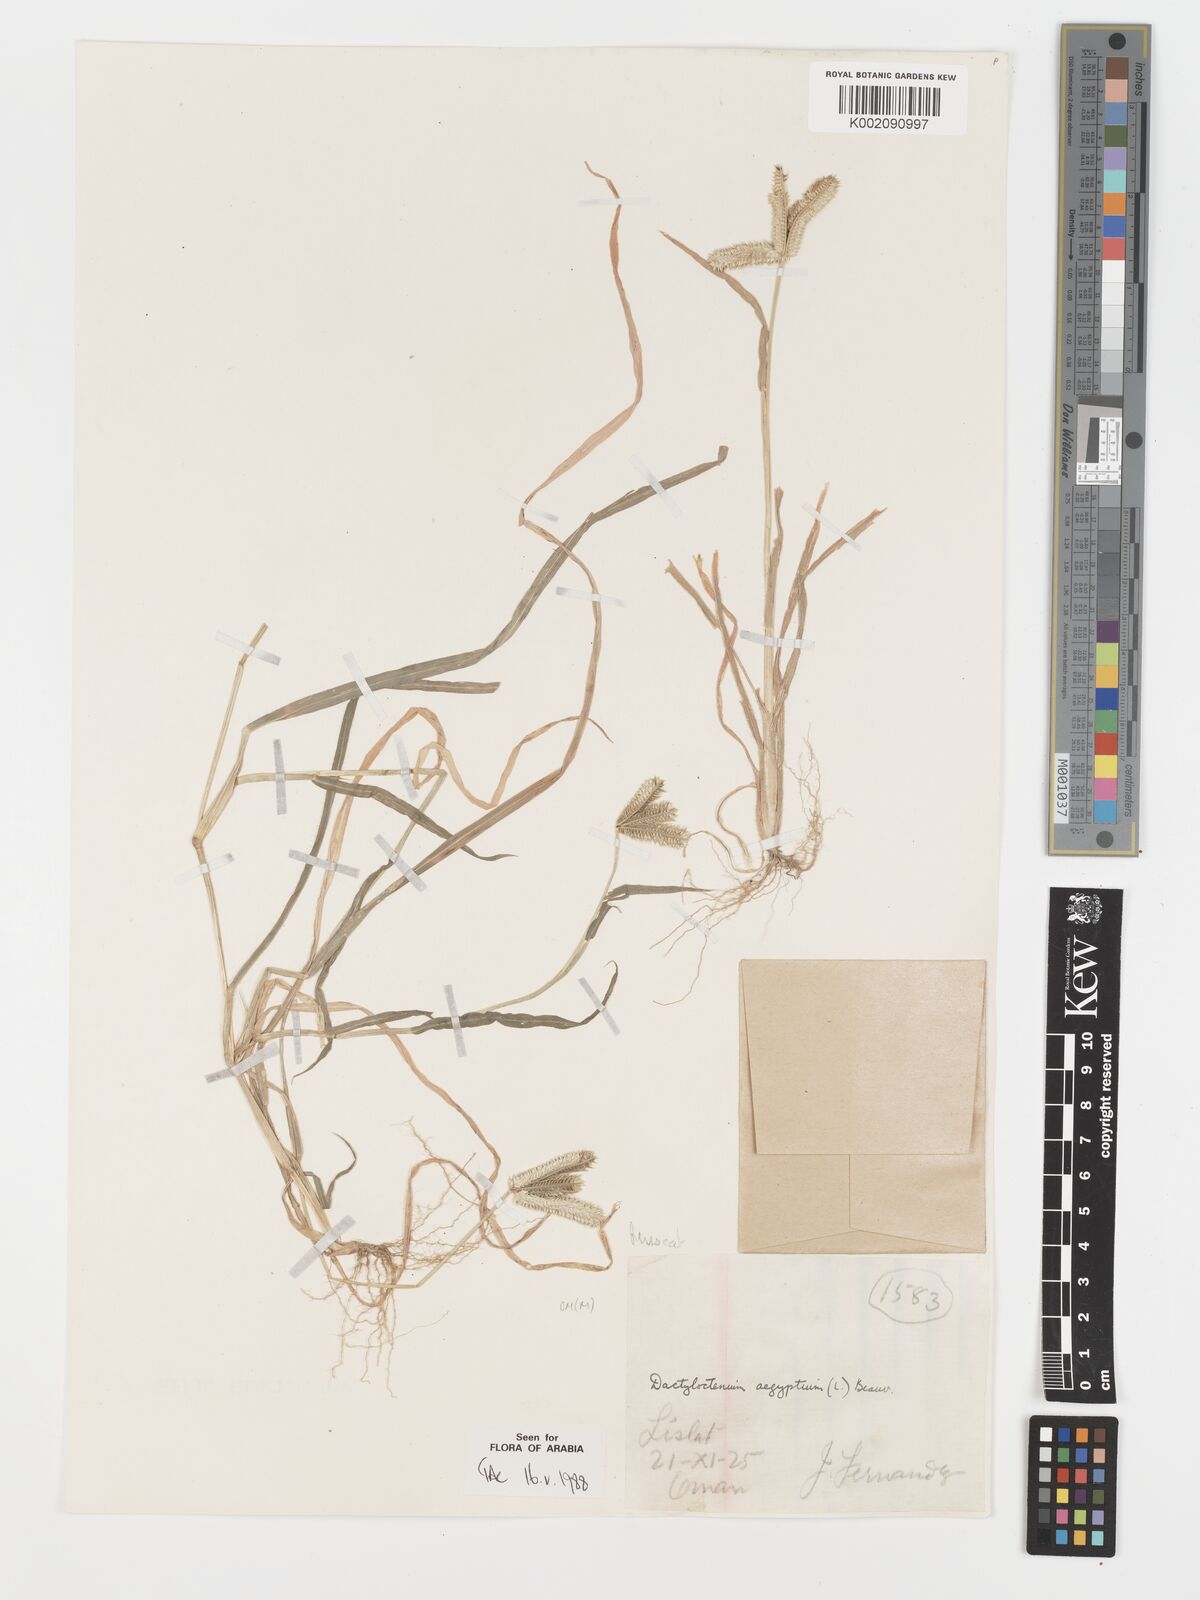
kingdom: Plantae
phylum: Tracheophyta
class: Liliopsida
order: Poales
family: Poaceae
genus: Dactyloctenium
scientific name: Dactyloctenium aegyptium
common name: Egyptian grass
